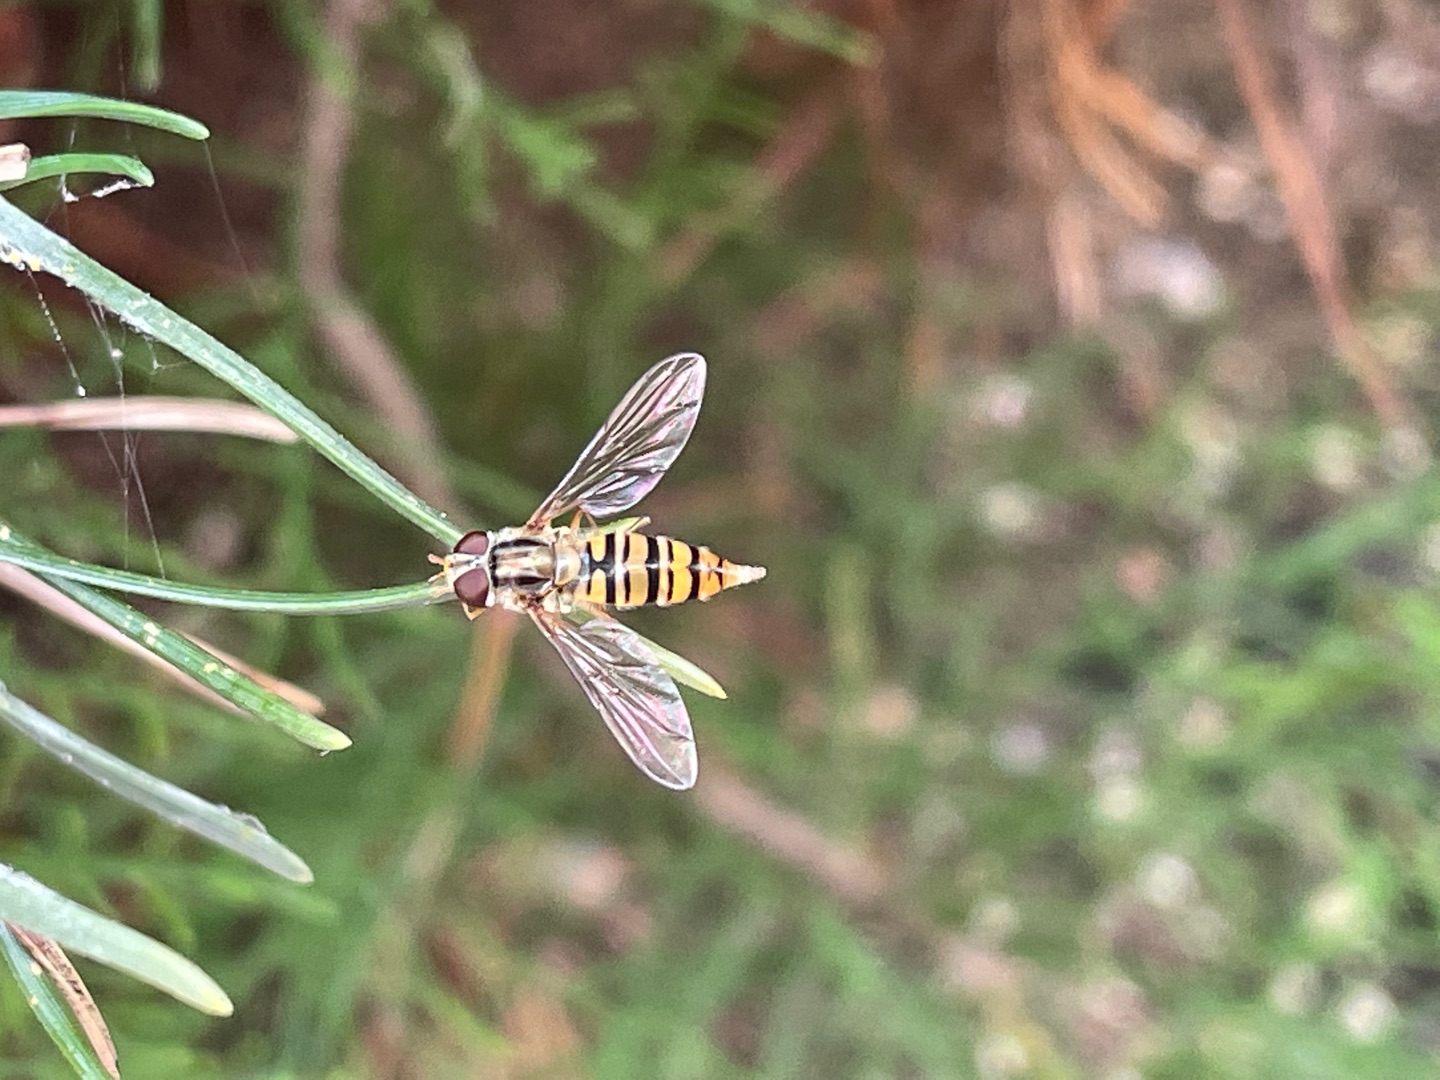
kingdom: Animalia
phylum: Arthropoda
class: Insecta
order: Diptera
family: Syrphidae
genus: Episyrphus
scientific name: Episyrphus balteatus
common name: Dobbeltbåndet svirreflue
